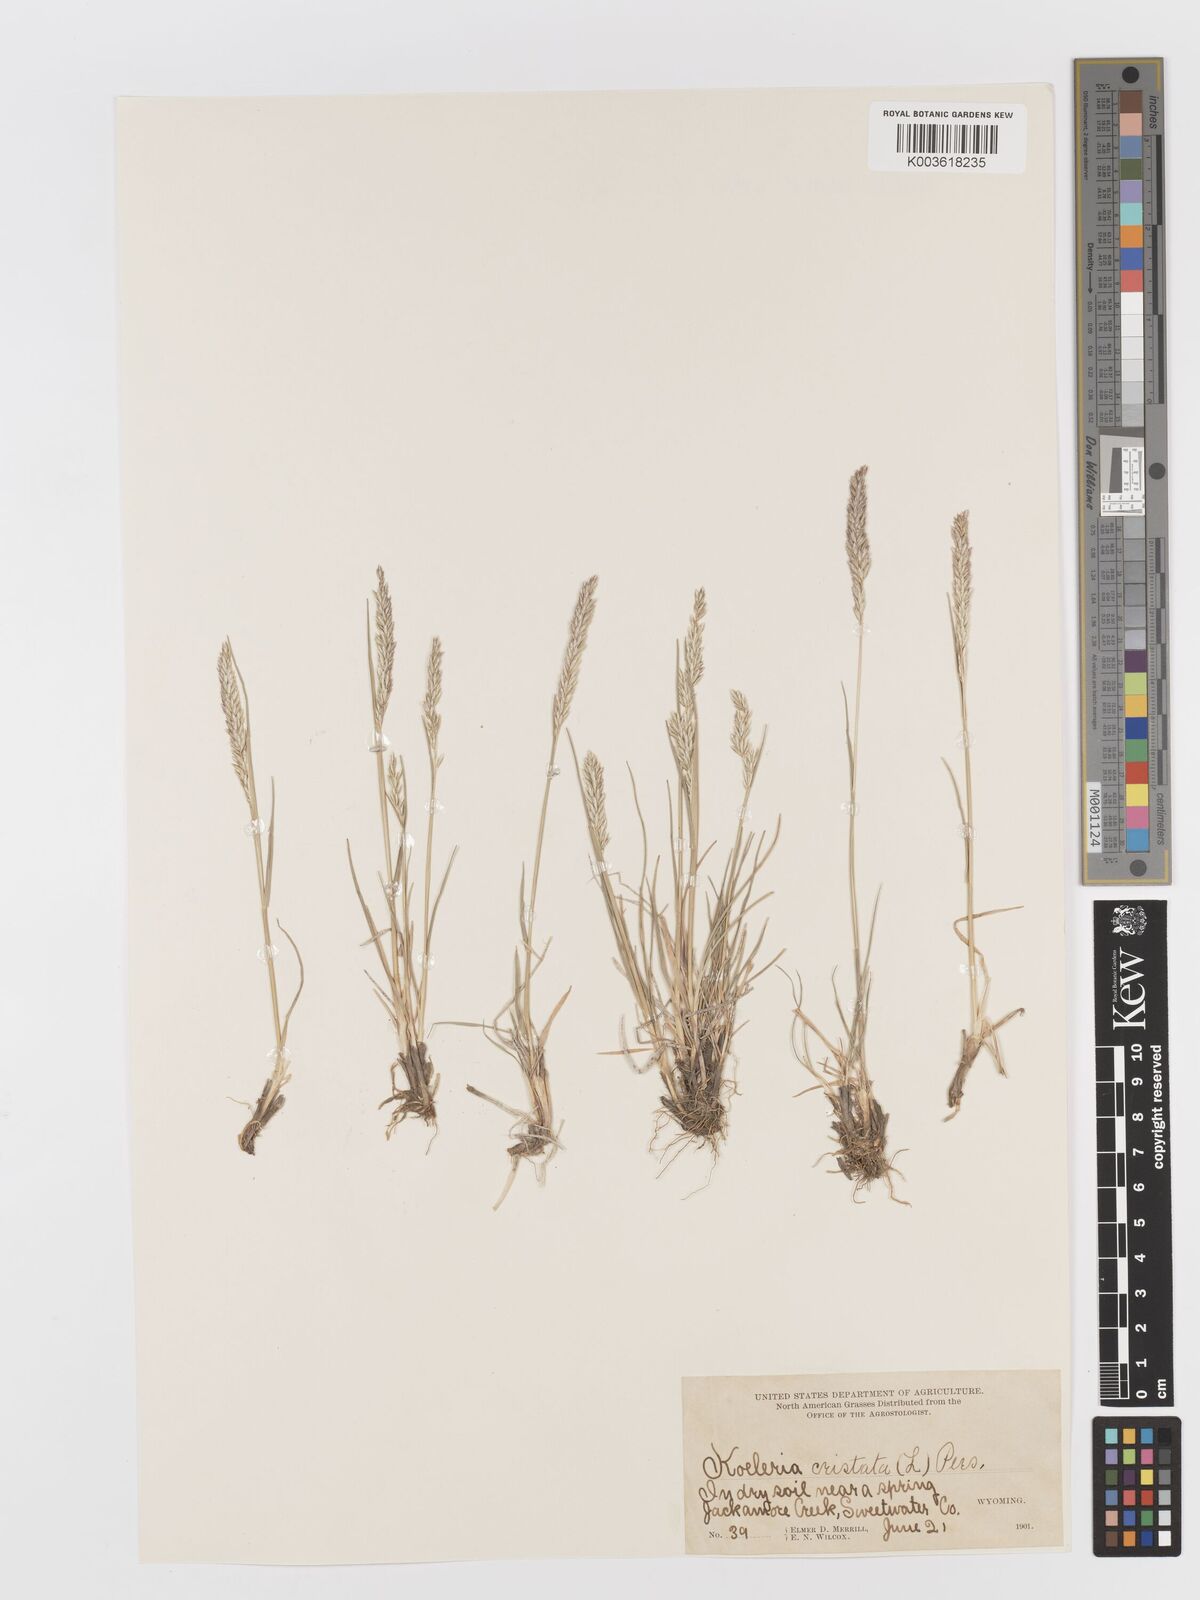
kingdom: Plantae
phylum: Tracheophyta
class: Liliopsida
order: Poales
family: Poaceae
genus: Koeleria
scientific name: Koeleria macrantha
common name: Crested hair-grass
